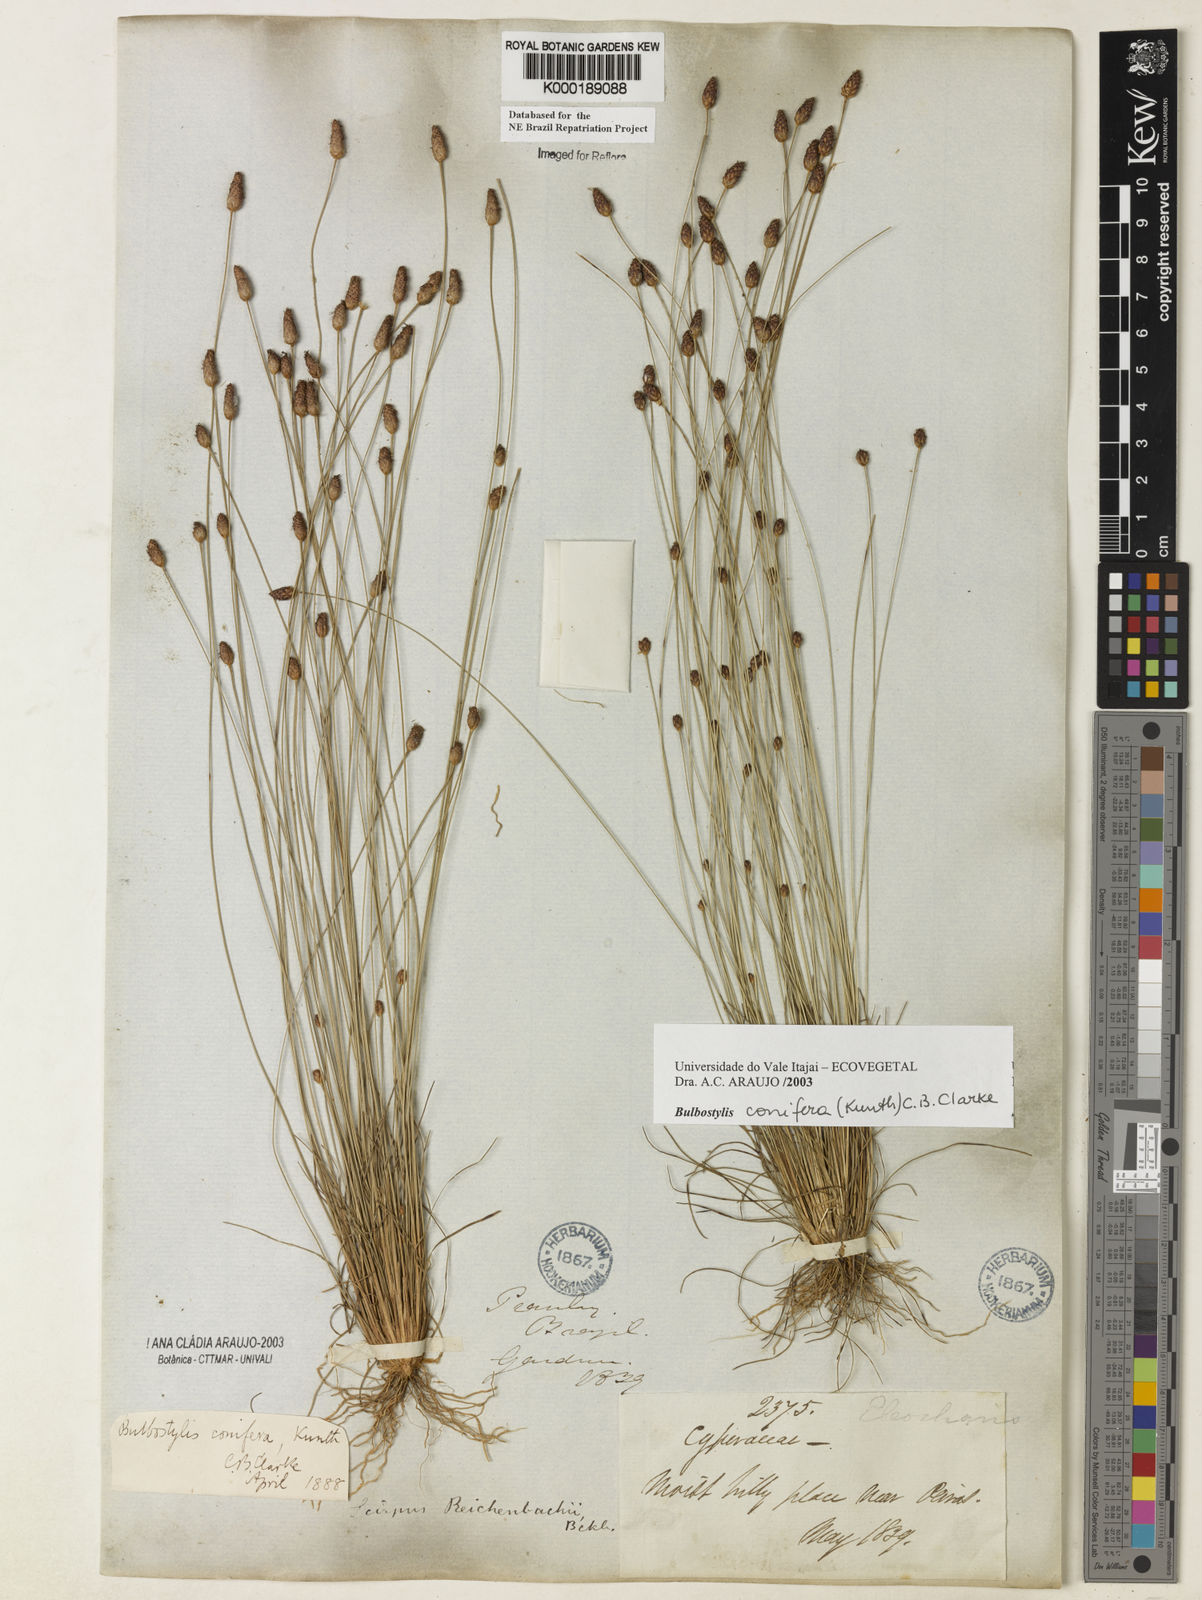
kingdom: Plantae
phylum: Tracheophyta
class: Liliopsida
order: Poales
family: Cyperaceae
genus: Bulbostylis
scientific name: Bulbostylis conifera
